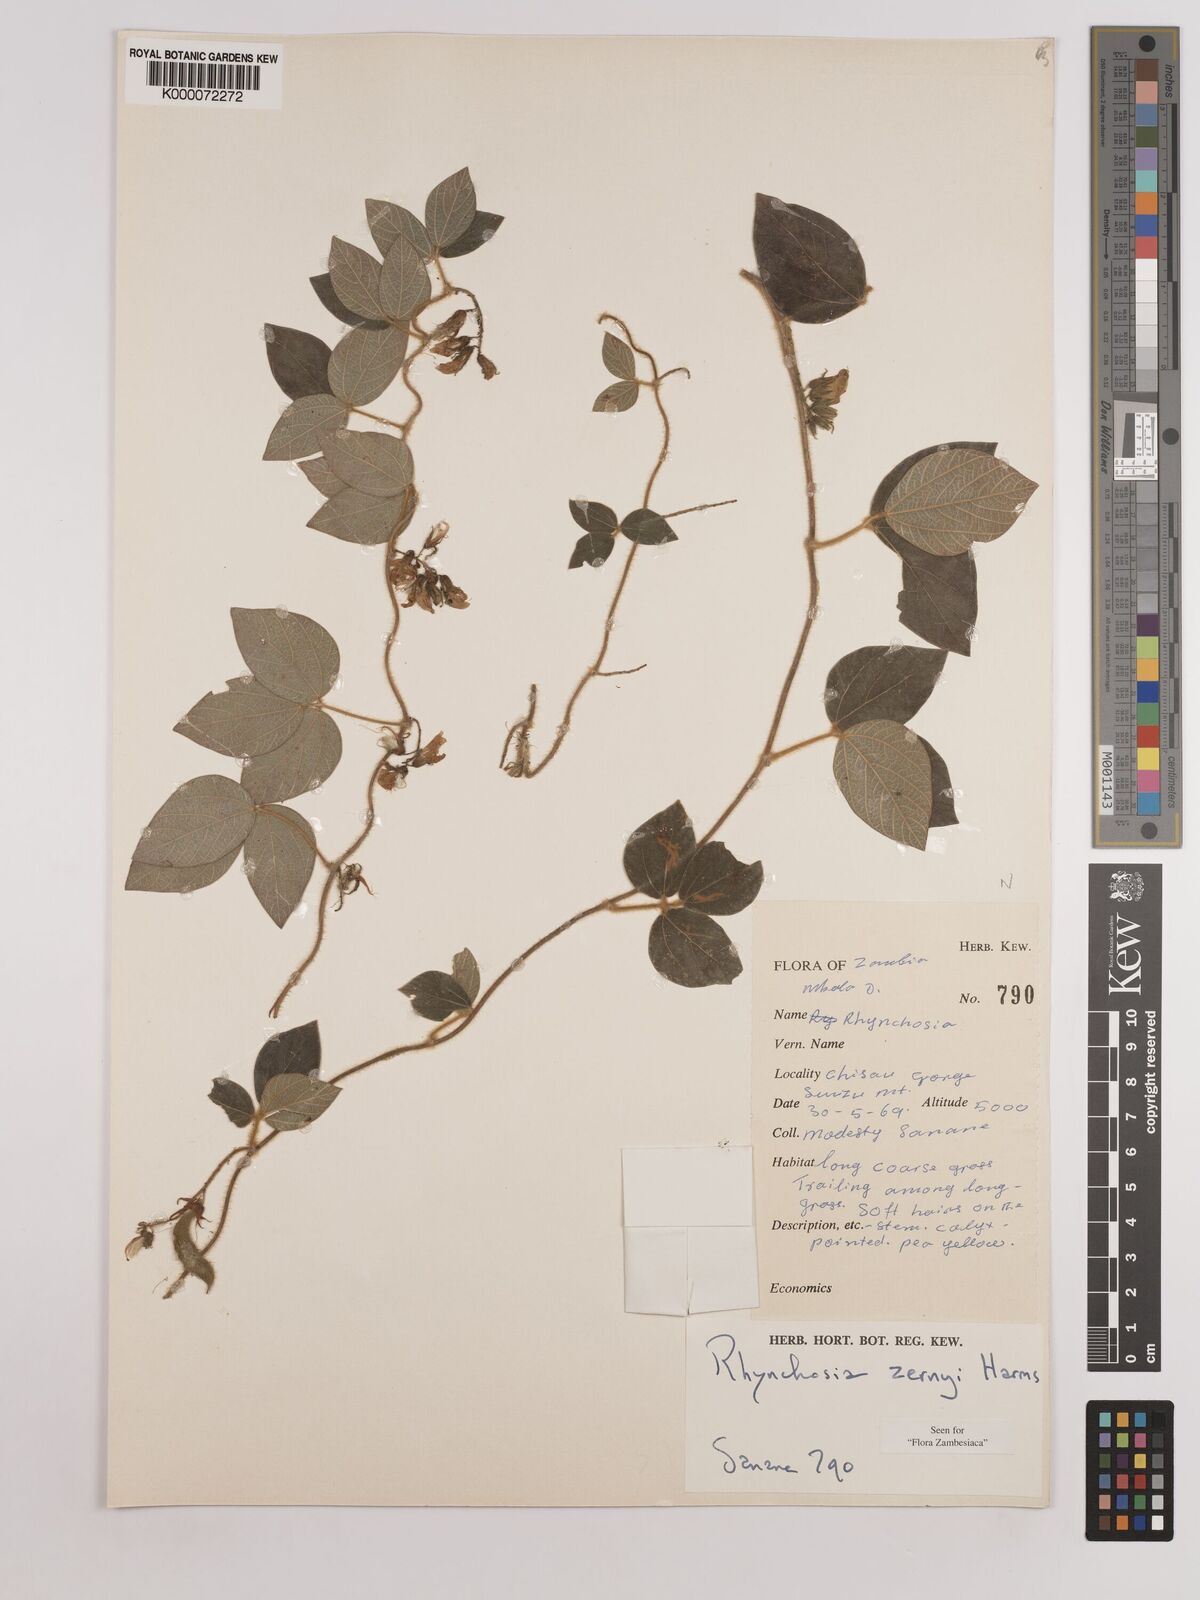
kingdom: Plantae
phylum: Tracheophyta
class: Magnoliopsida
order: Fabales
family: Fabaceae
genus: Rhynchosia
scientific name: Rhynchosia zernyi
